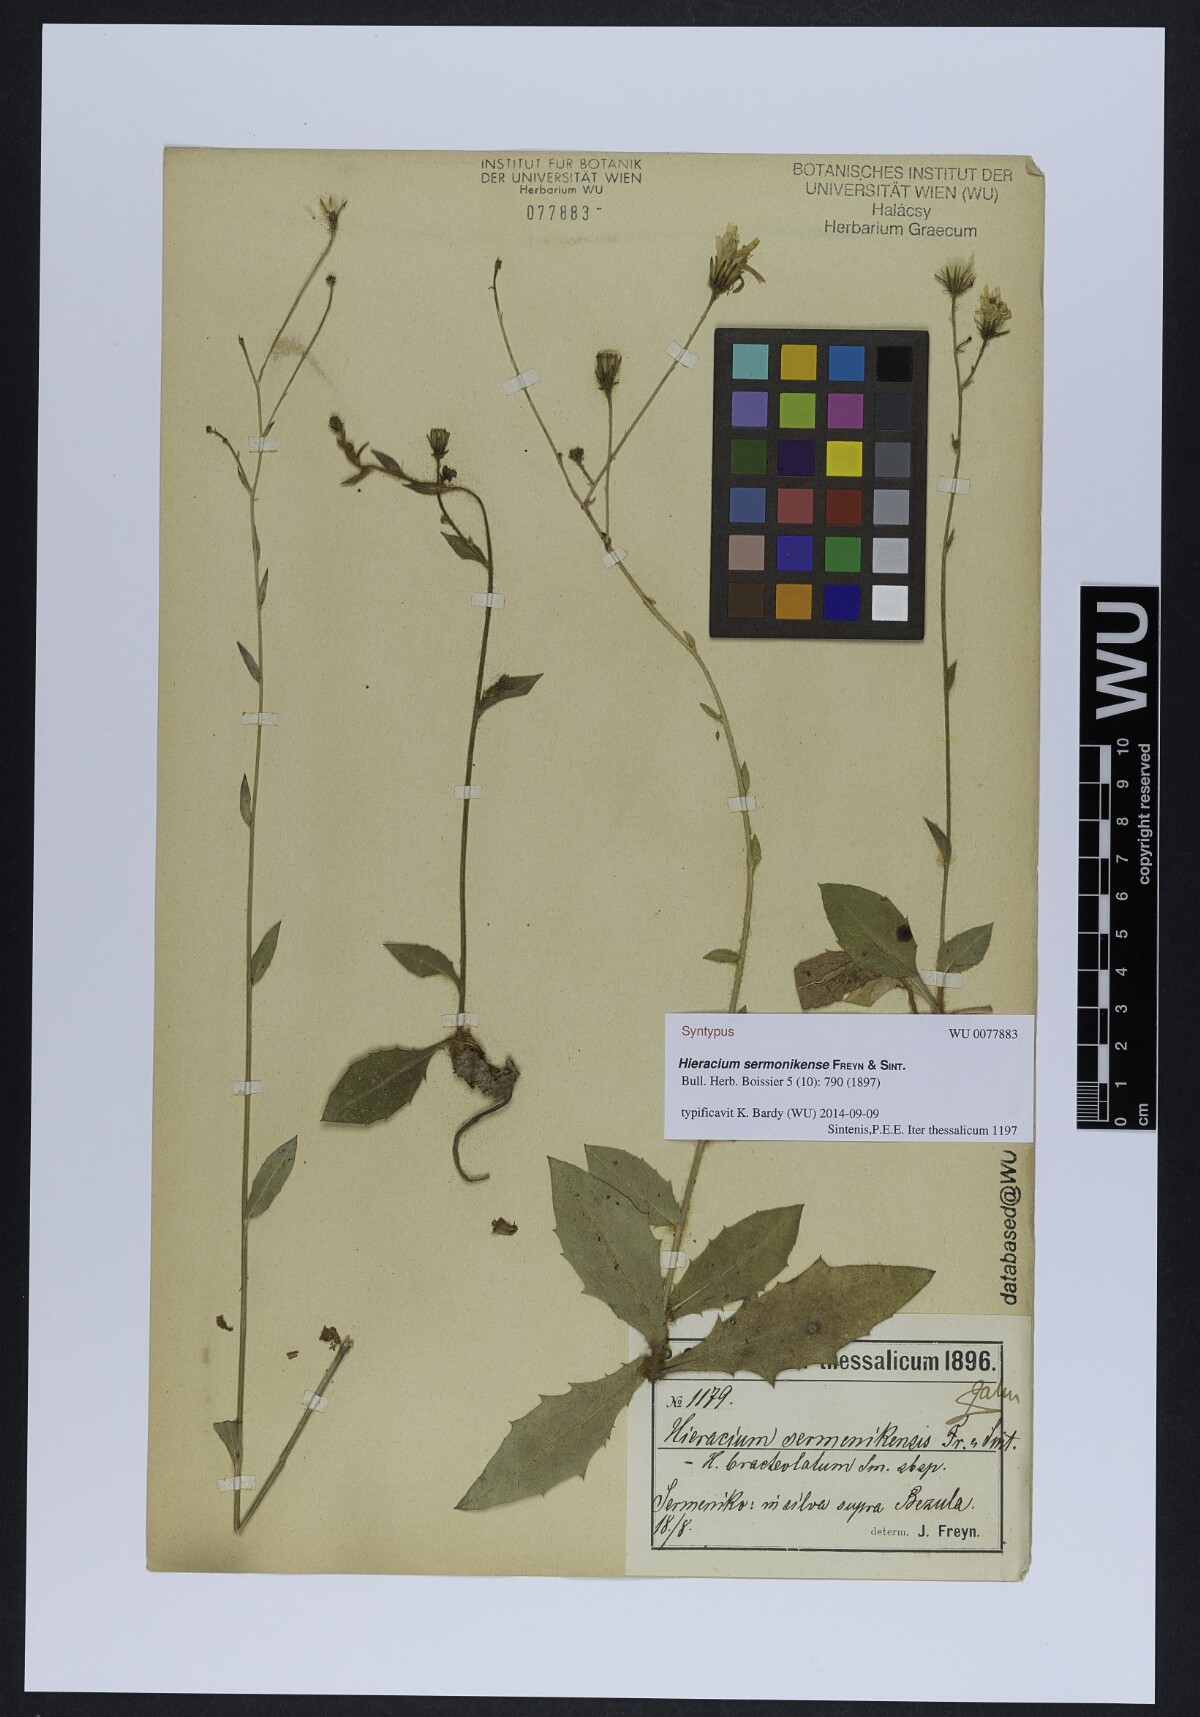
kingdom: Plantae
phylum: Tracheophyta
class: Magnoliopsida
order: Asterales
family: Asteraceae
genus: Hieracium
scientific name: Hieracium sermenikense
